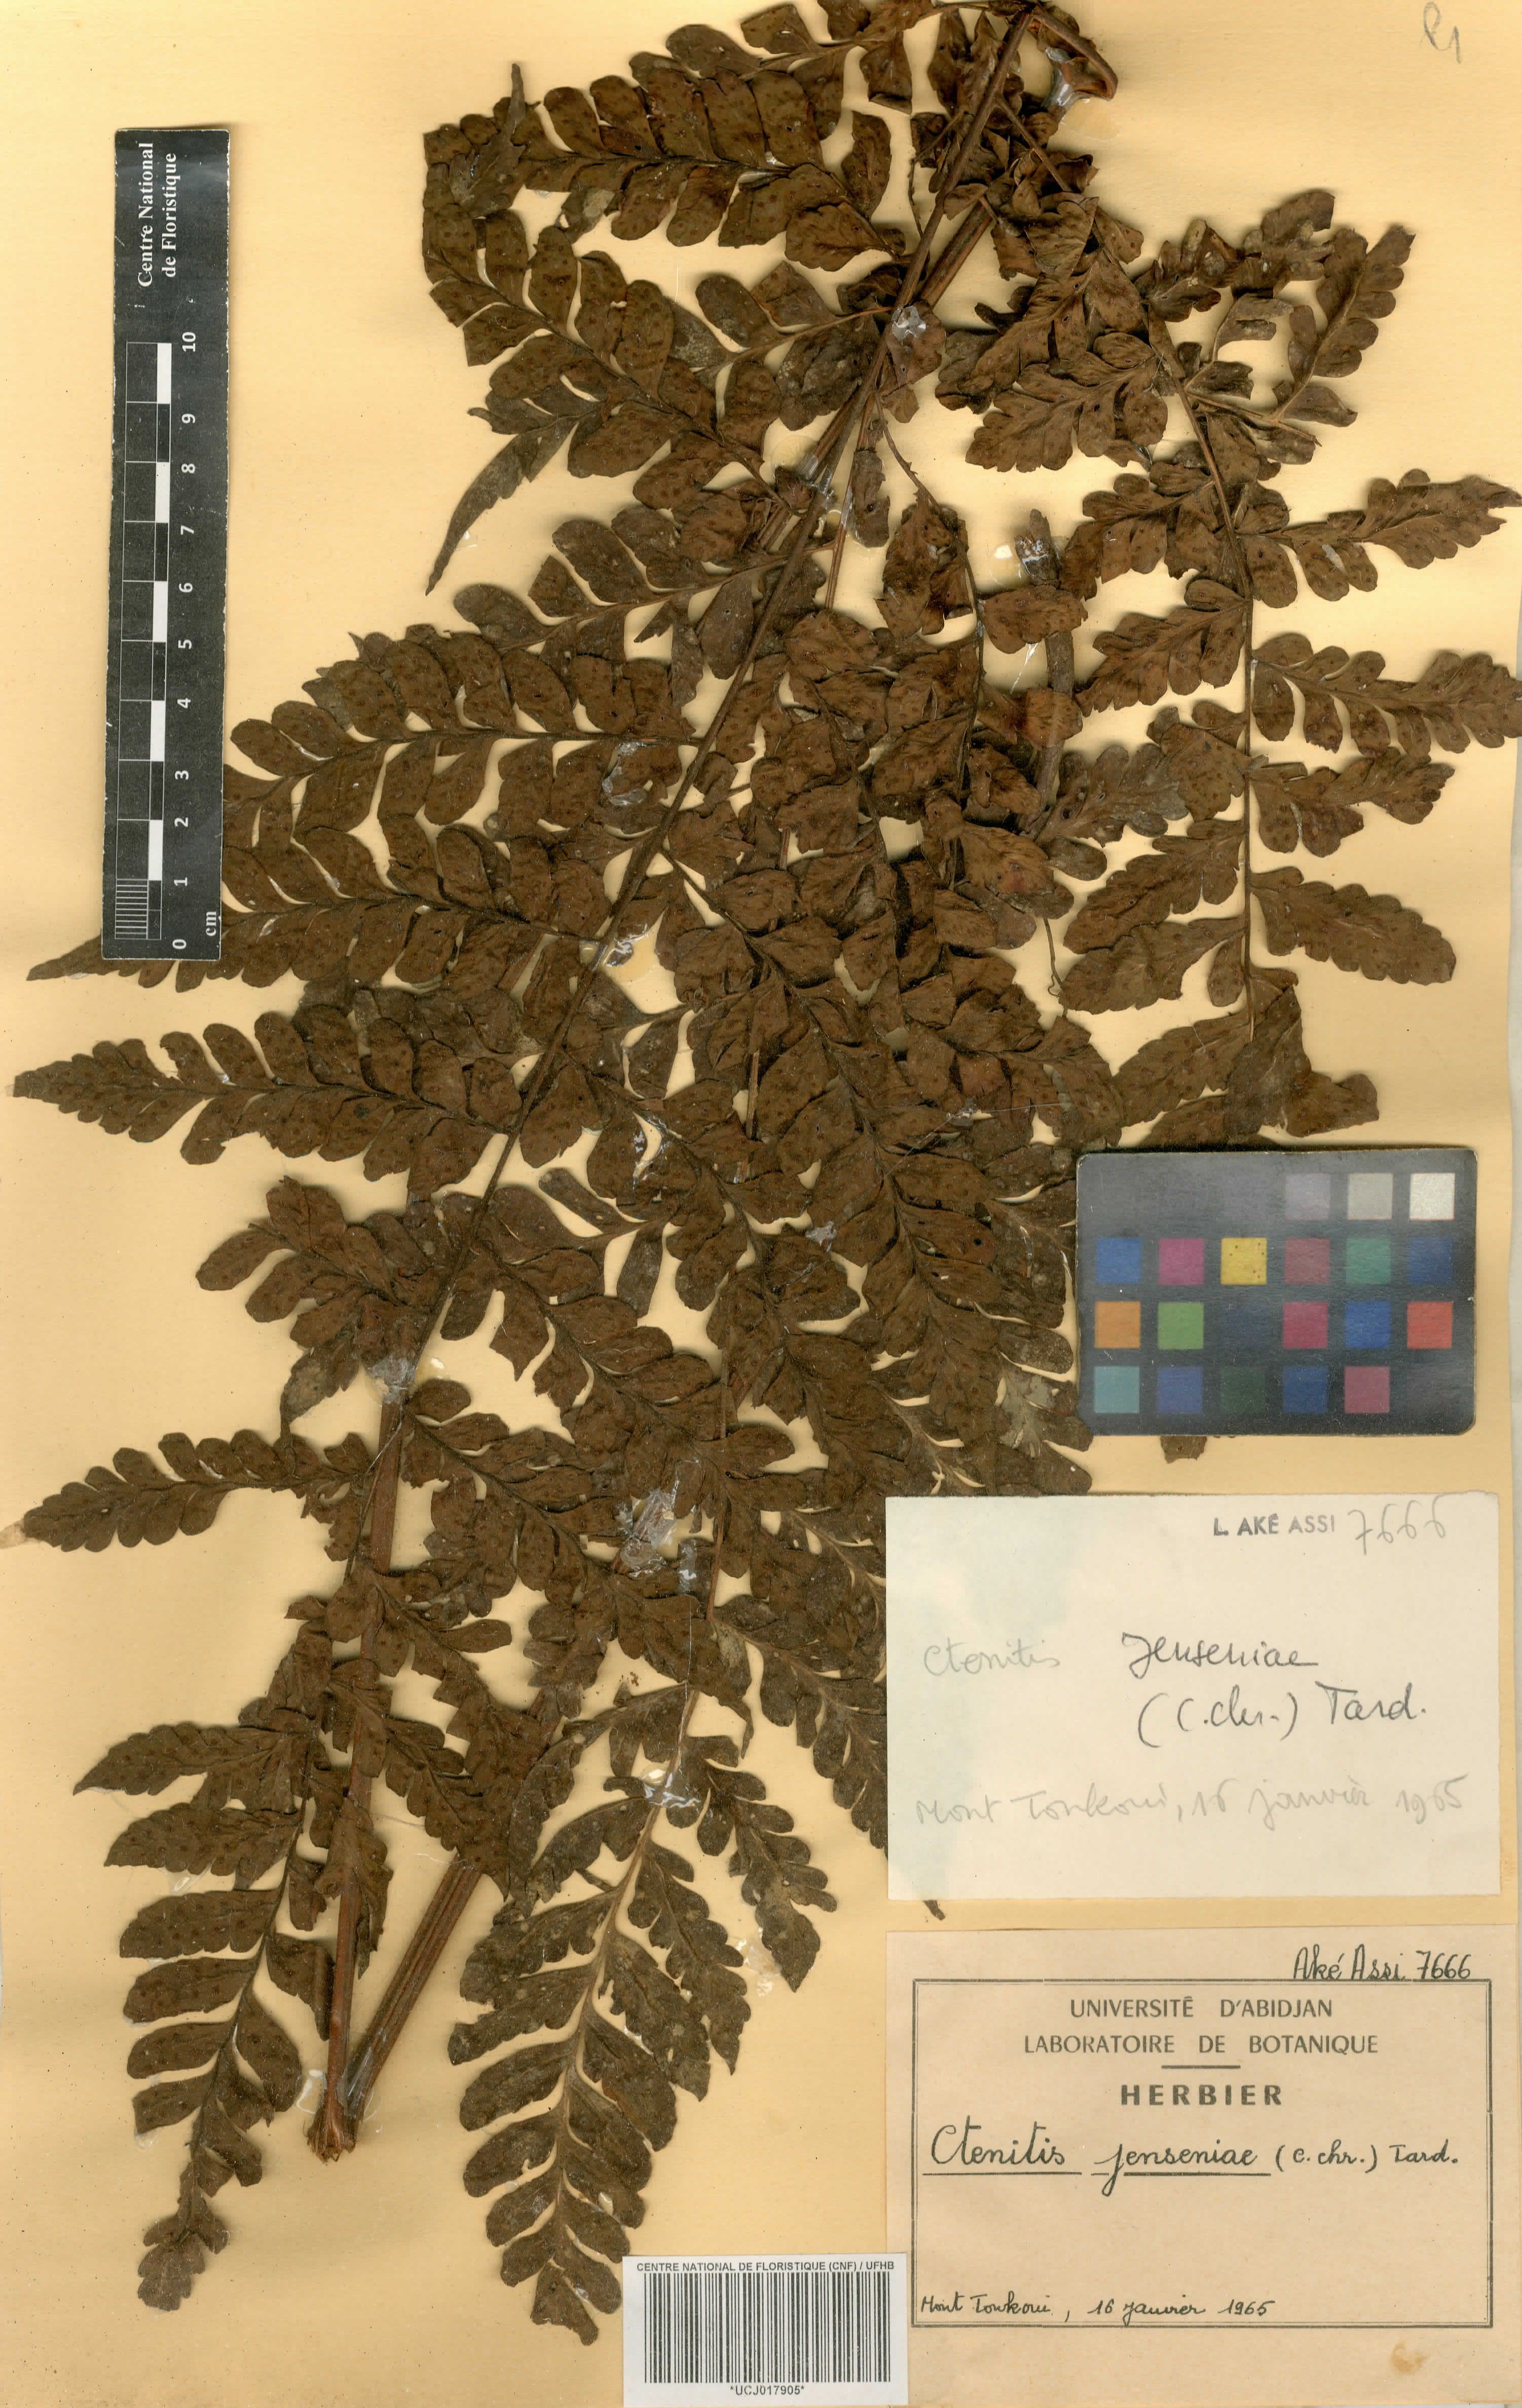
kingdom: Plantae
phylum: Tracheophyta
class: Polypodiopsida
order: Polypodiales
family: Tectariaceae
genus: Triplophyllum
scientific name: Triplophyllum jenseniae
